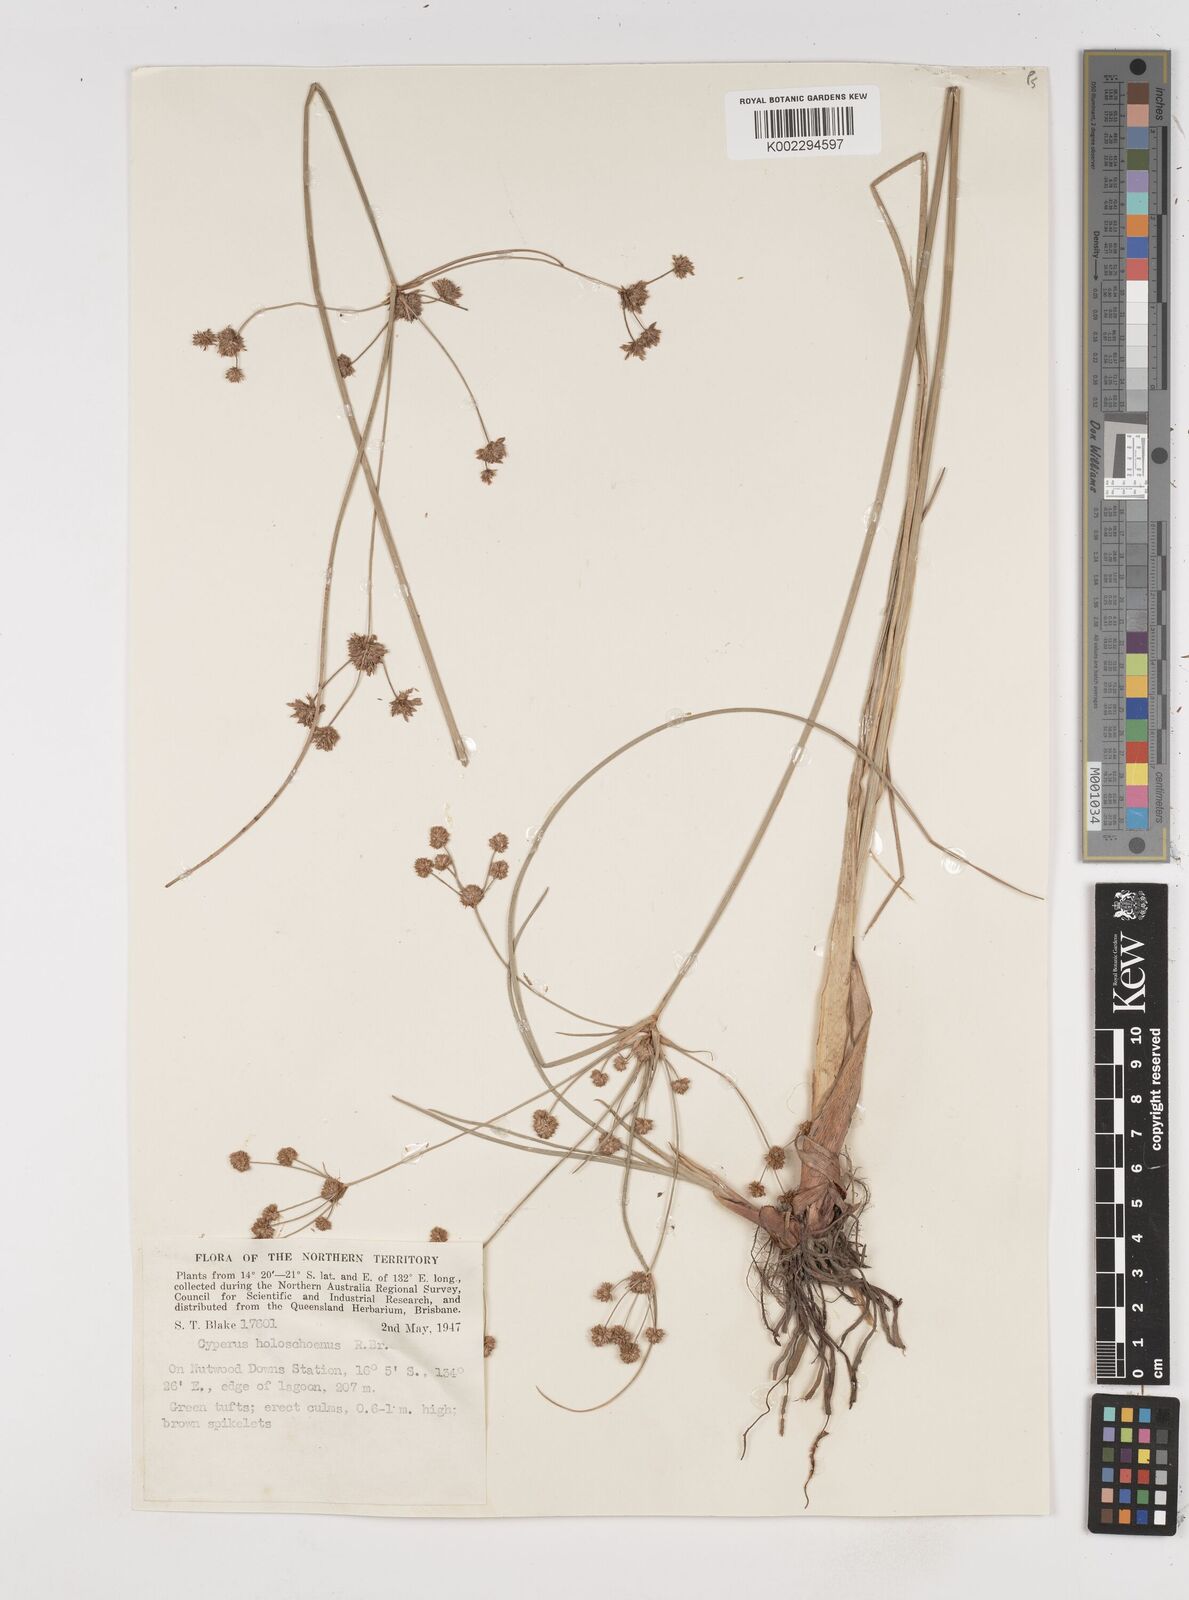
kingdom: Plantae
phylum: Tracheophyta
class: Liliopsida
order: Poales
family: Cyperaceae
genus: Cyperus
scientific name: Cyperus holoschoenus
